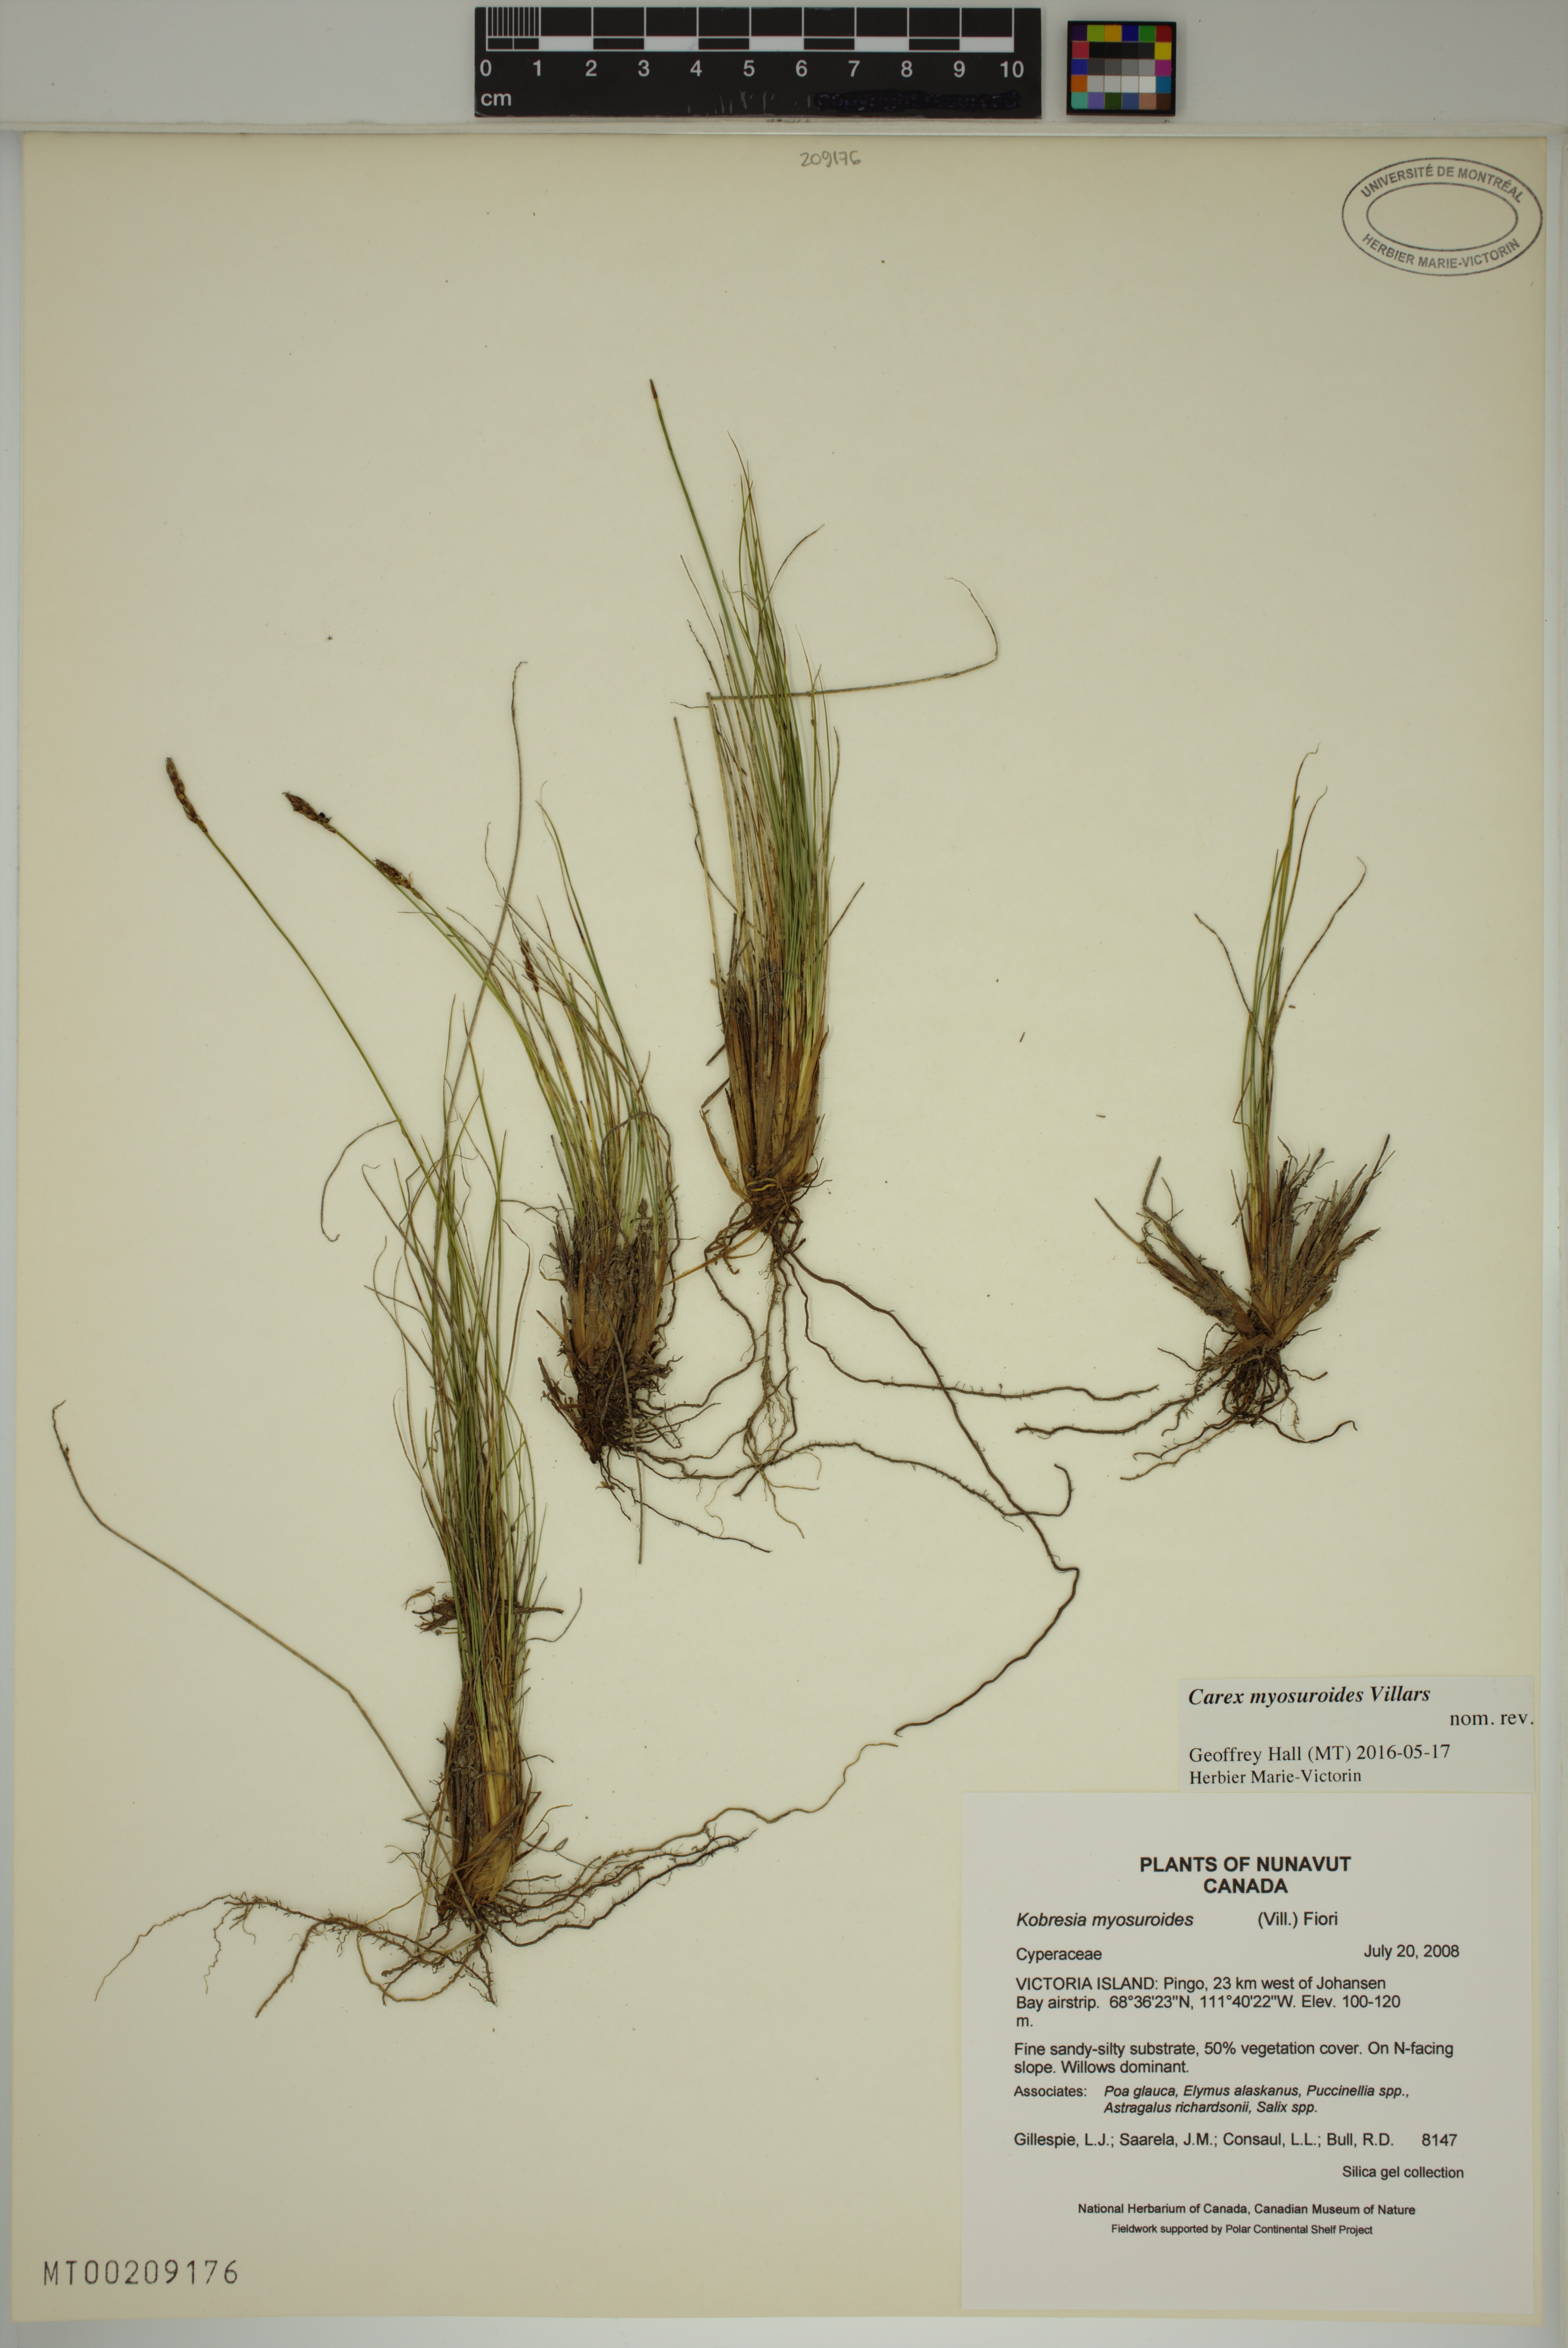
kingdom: Plantae
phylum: Tracheophyta
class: Liliopsida
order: Poales
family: Cyperaceae
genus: Carex
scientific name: Carex myosuroides
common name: Bellard's bog sedge
